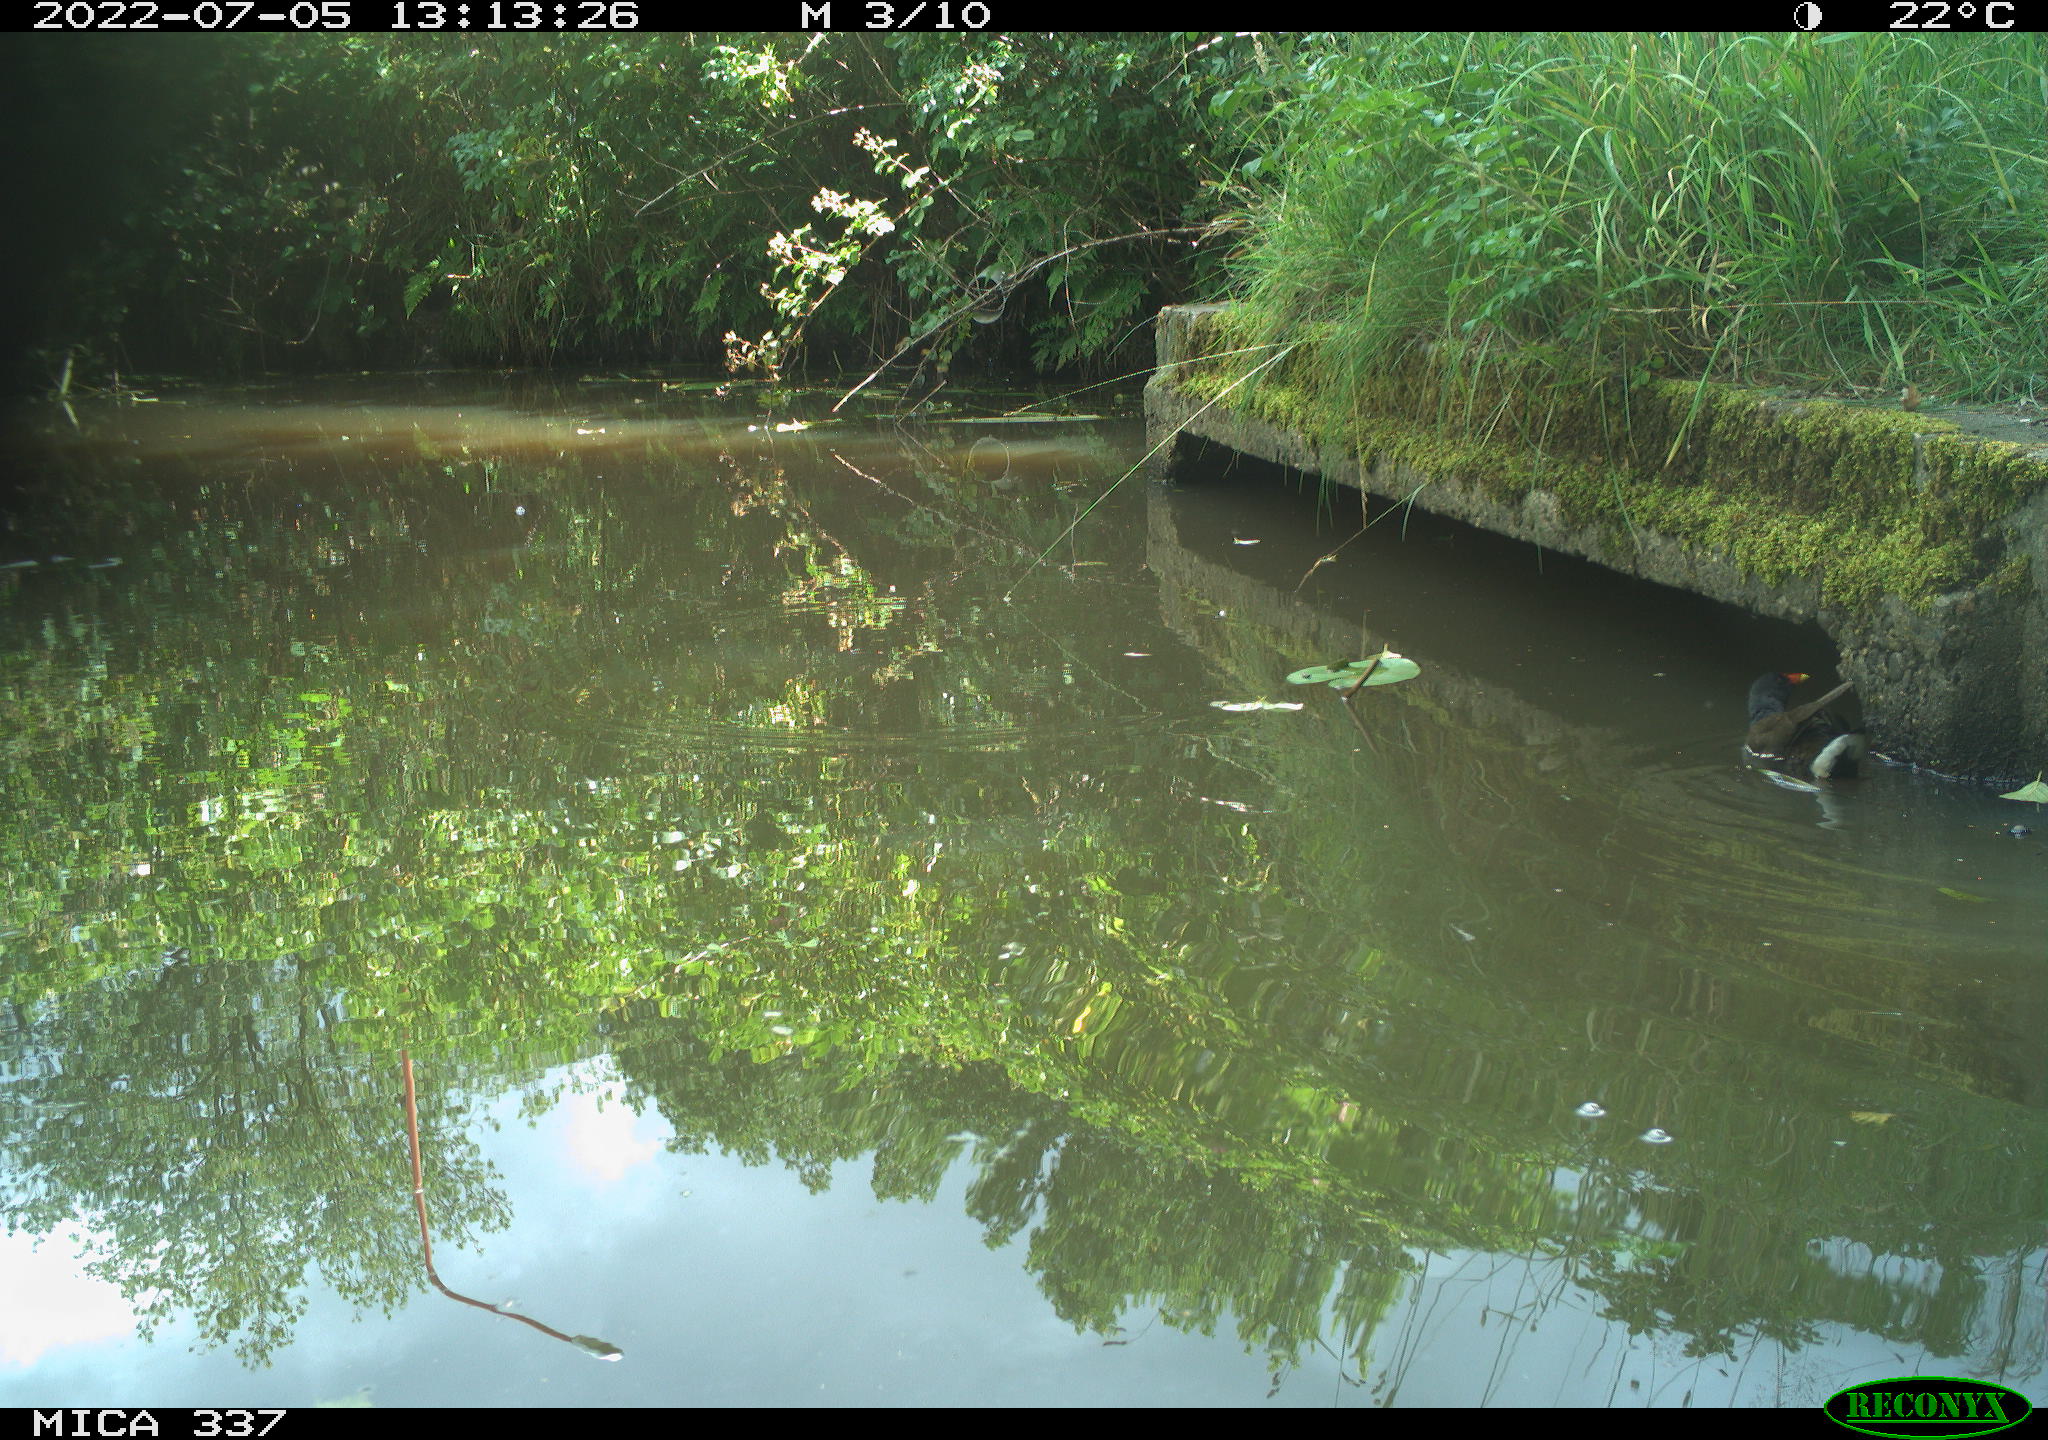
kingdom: Animalia
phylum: Chordata
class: Aves
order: Gruiformes
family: Rallidae
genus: Gallinula
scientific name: Gallinula chloropus
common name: Common moorhen
